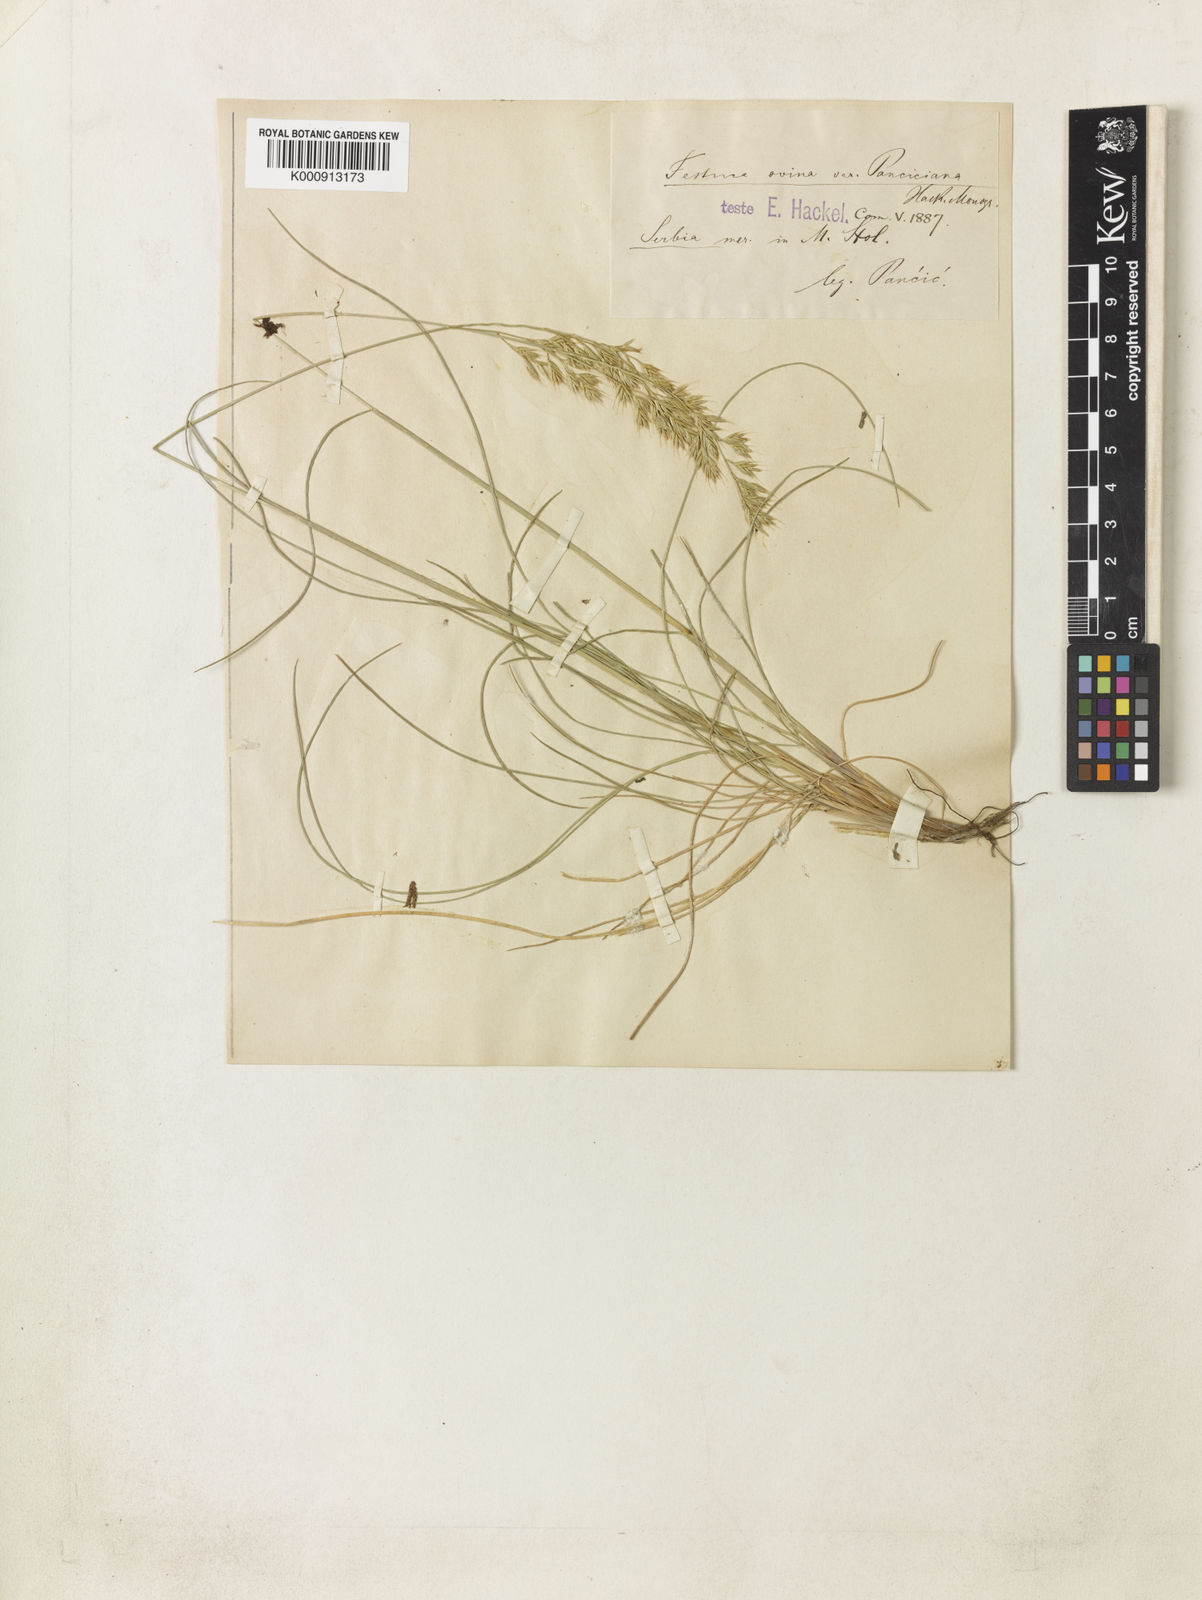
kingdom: Plantae
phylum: Tracheophyta
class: Liliopsida
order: Poales
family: Poaceae
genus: Festuca
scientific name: Festuca panciciana
